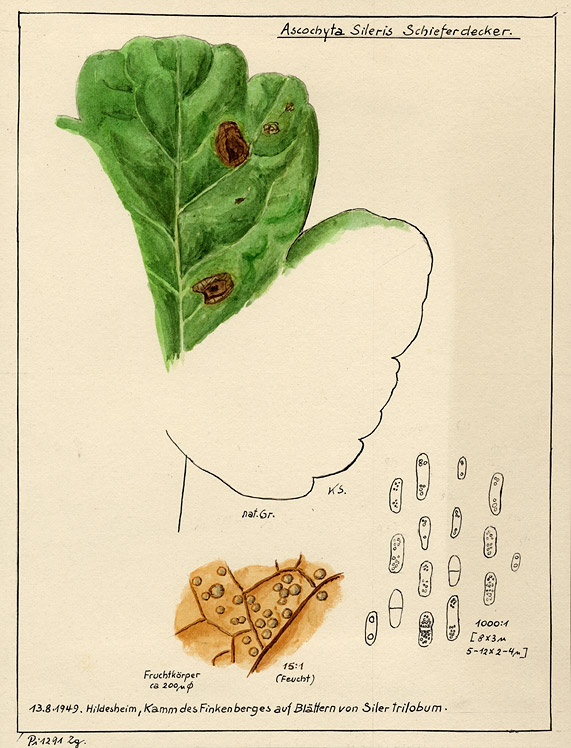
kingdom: Plantae
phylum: Tracheophyta
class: Magnoliopsida
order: Apiales
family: Apiaceae
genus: Laser
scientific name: Laser trilobum
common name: Laser
